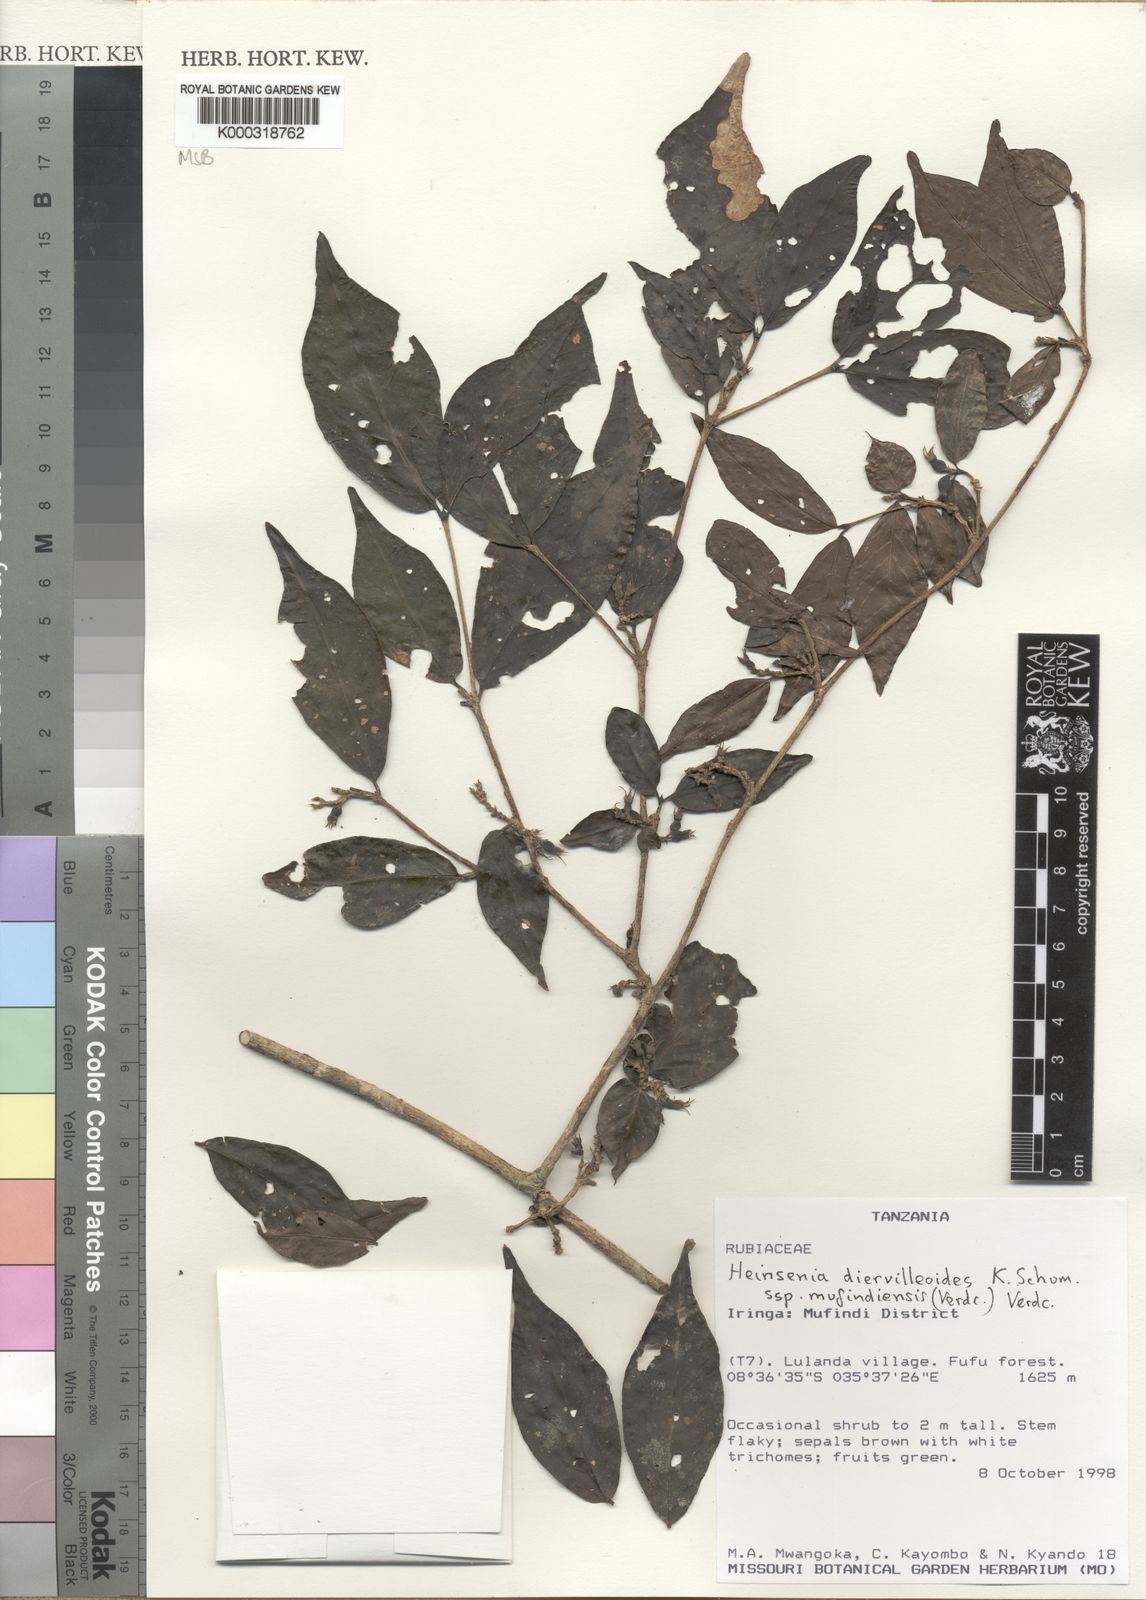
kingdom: Plantae
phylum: Tracheophyta
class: Magnoliopsida
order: Gentianales
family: Rubiaceae
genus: Heinsenia
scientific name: Heinsenia diervilleoides
